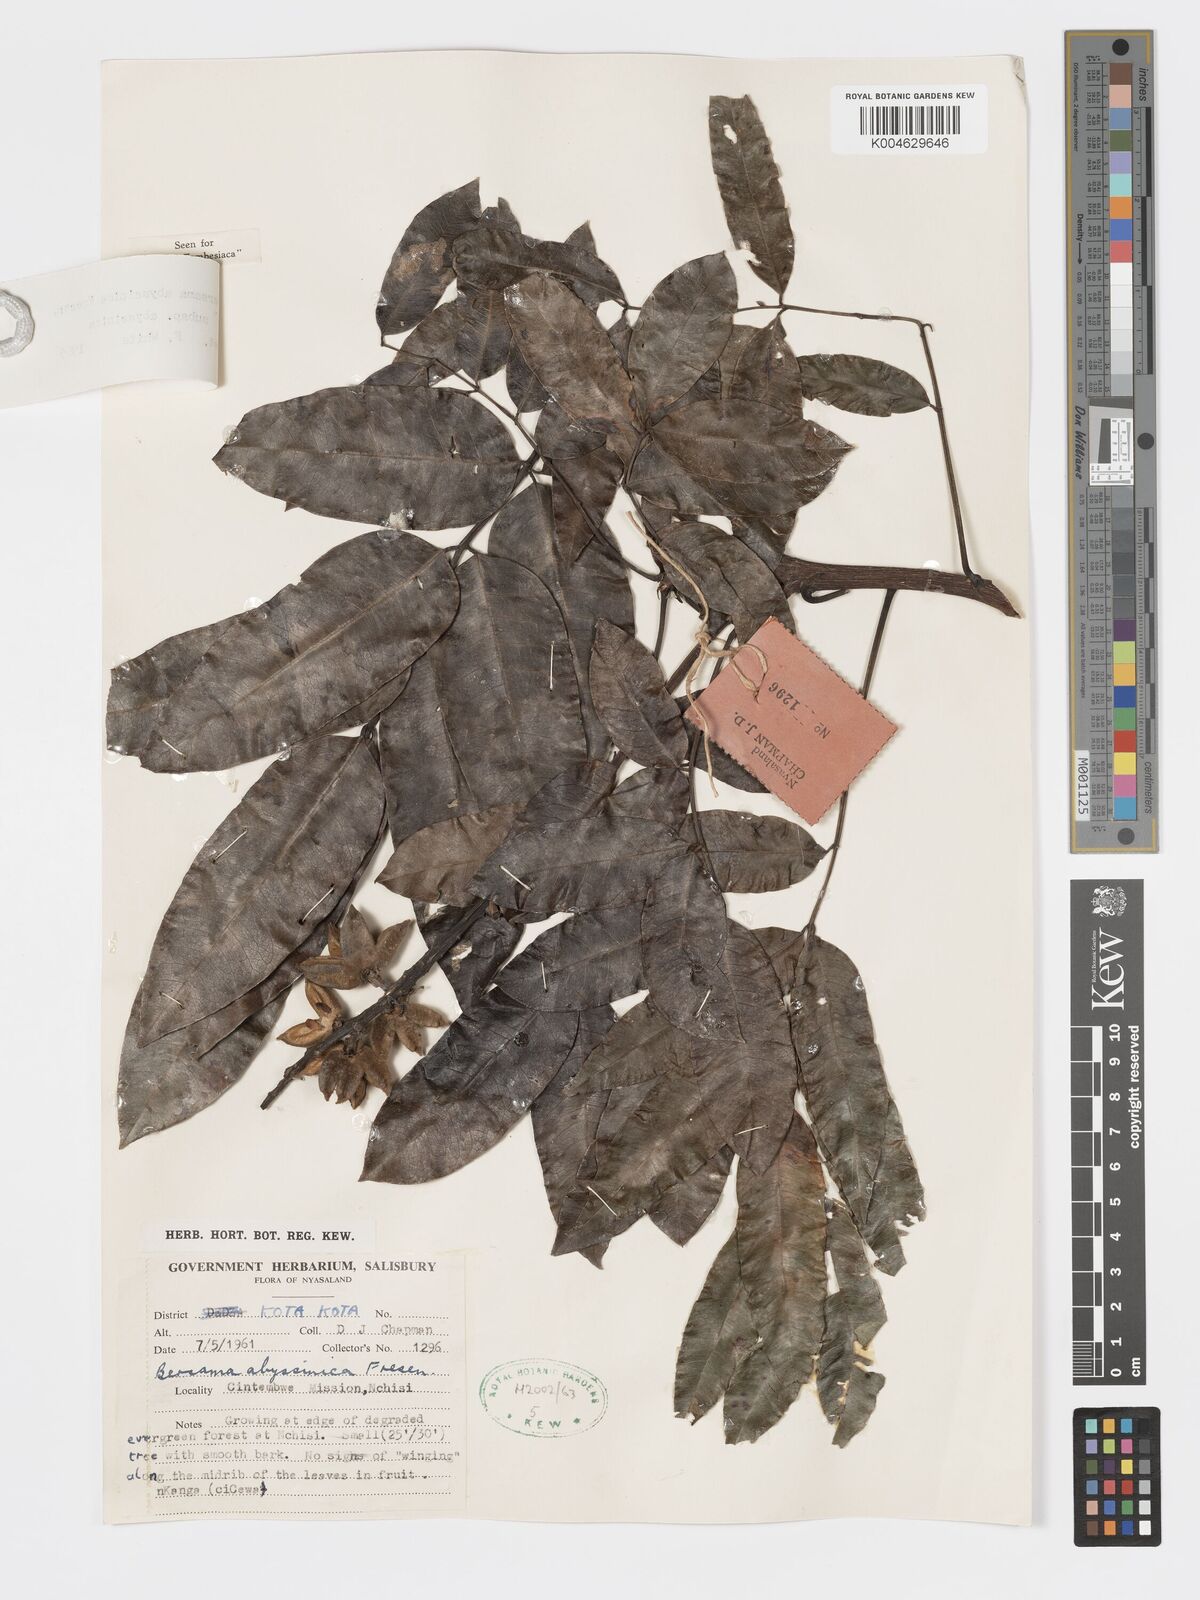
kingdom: Plantae
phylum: Tracheophyta
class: Magnoliopsida
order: Geraniales
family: Francoaceae
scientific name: Francoaceae
